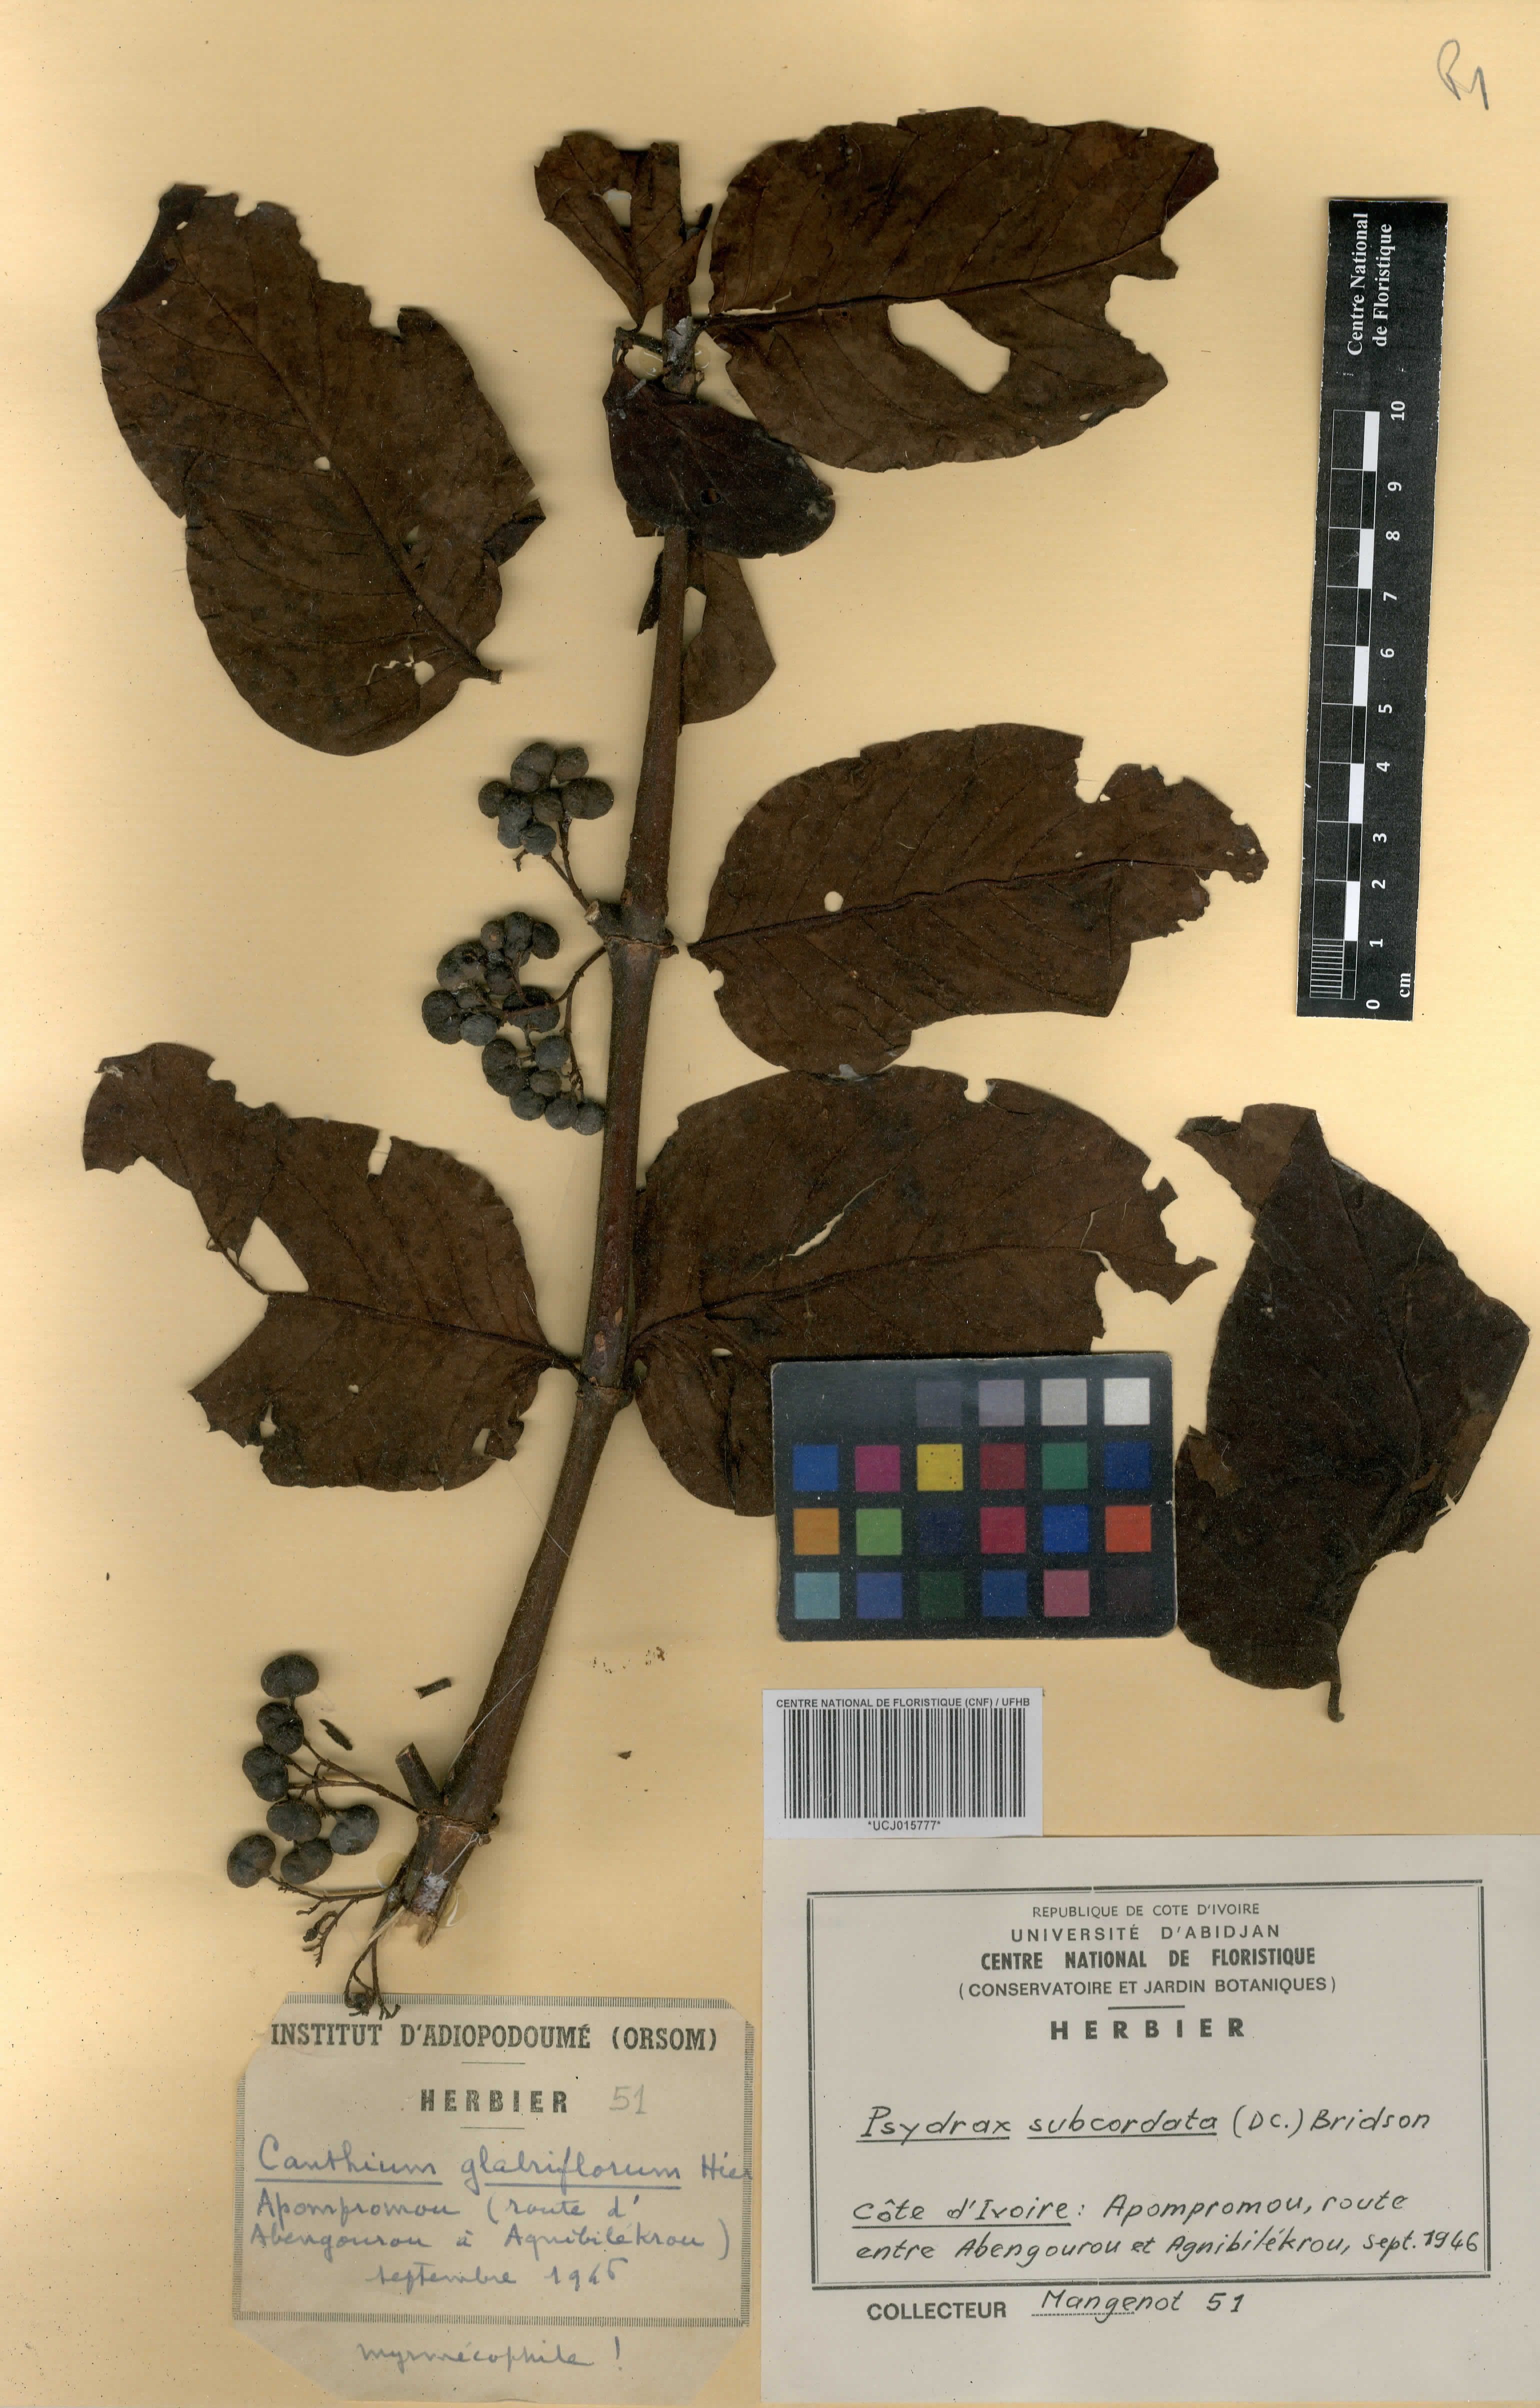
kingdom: Plantae
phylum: Tracheophyta
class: Magnoliopsida
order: Gentianales
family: Rubiaceae
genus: Psydrax
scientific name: Psydrax subcordatus
